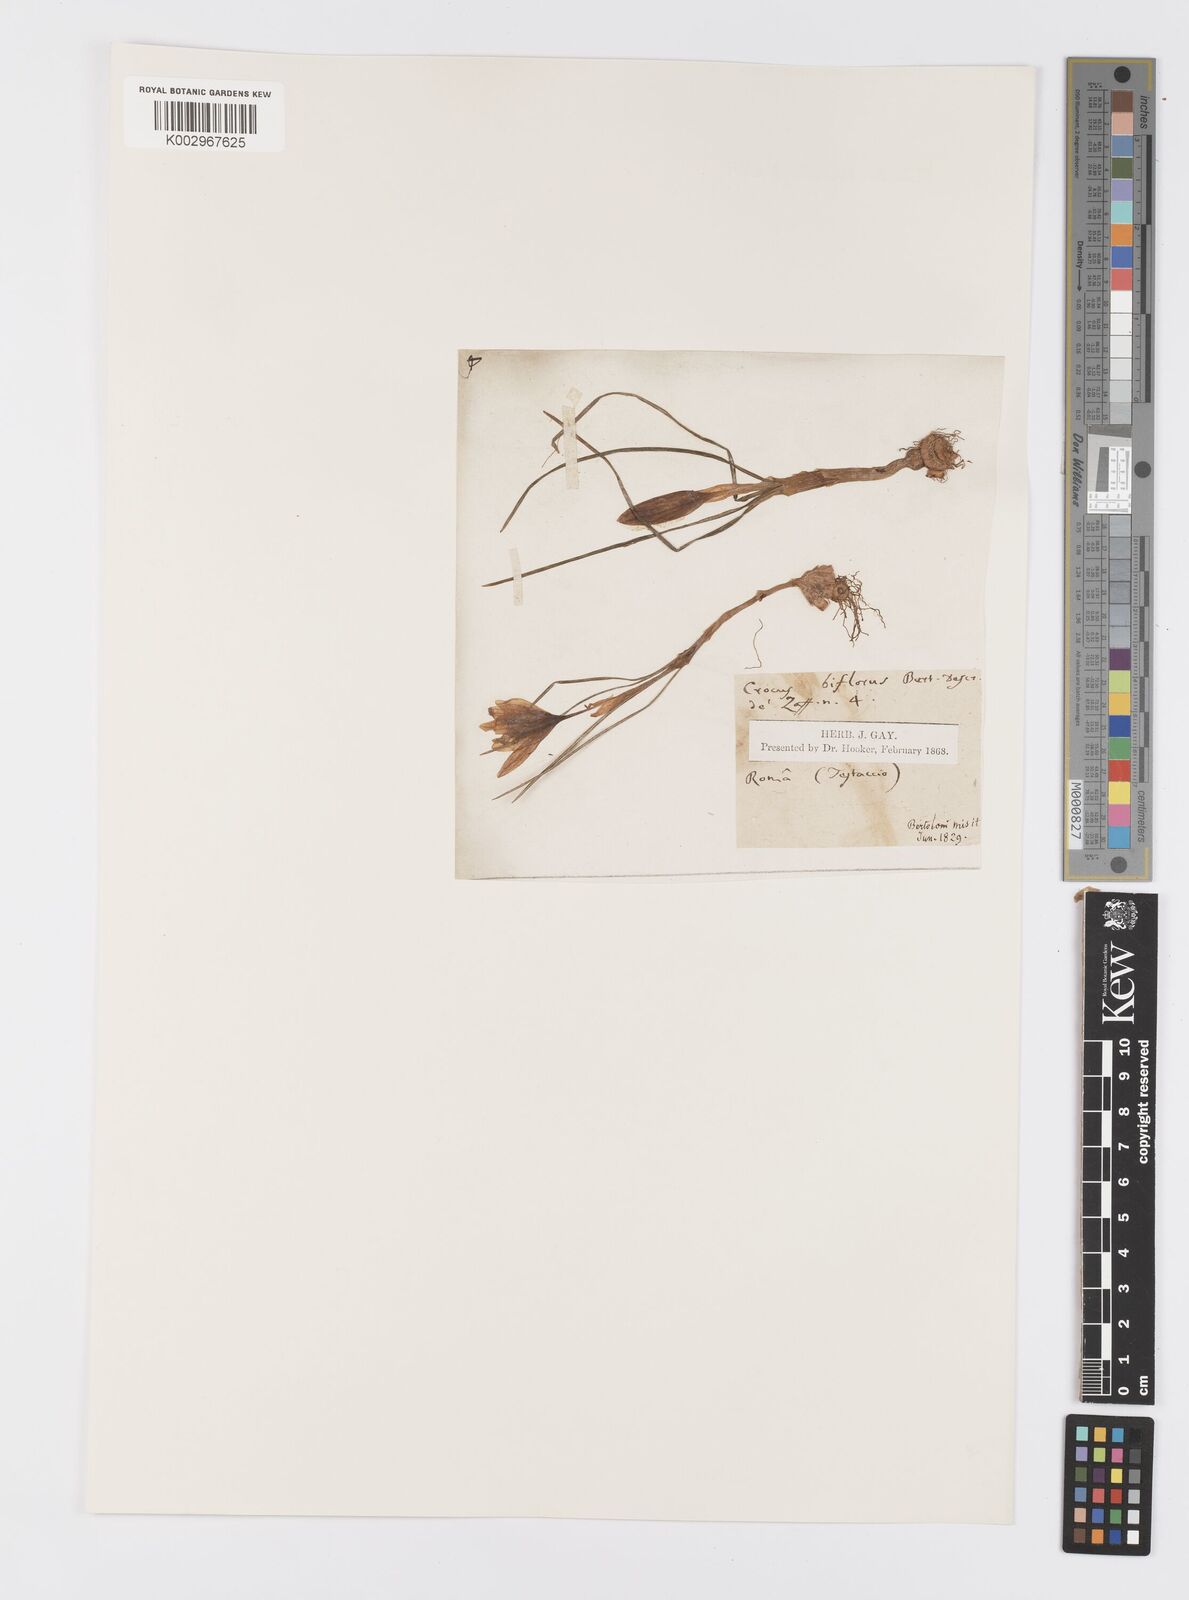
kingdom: Plantae
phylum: Tracheophyta
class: Liliopsida
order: Asparagales
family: Iridaceae
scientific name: Iridaceae
